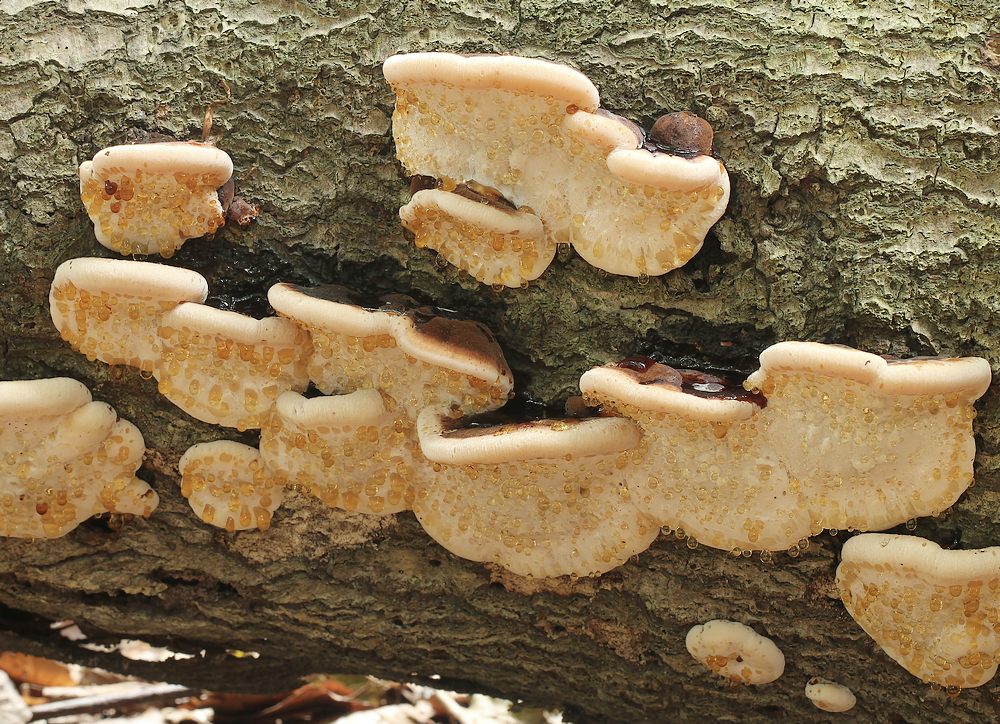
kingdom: Fungi
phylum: Basidiomycota
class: Agaricomycetes
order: Polyporales
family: Ischnodermataceae
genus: Ischnoderma
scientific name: Ischnoderma resinosum
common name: løv-tjæreporesvamp
